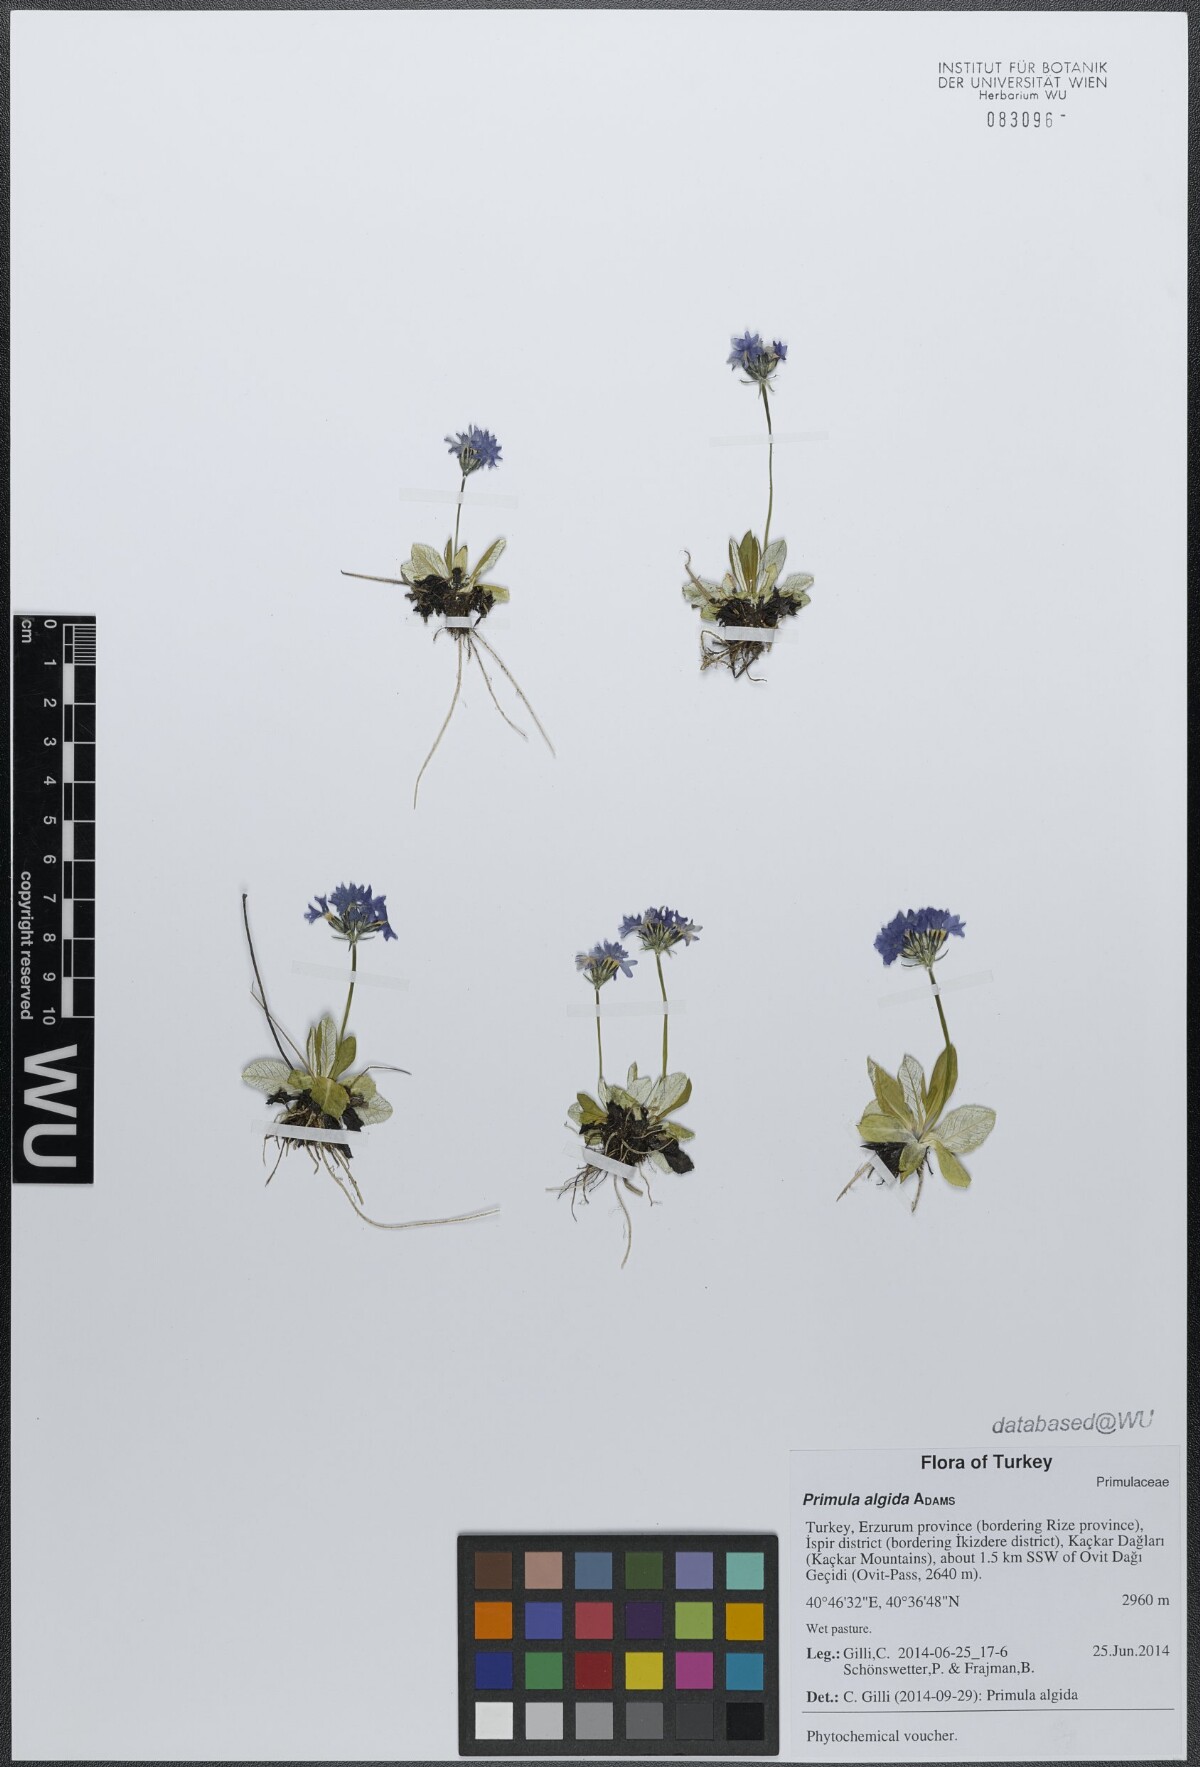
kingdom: Plantae
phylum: Tracheophyta
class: Magnoliopsida
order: Ericales
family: Primulaceae
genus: Primula
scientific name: Primula algida
